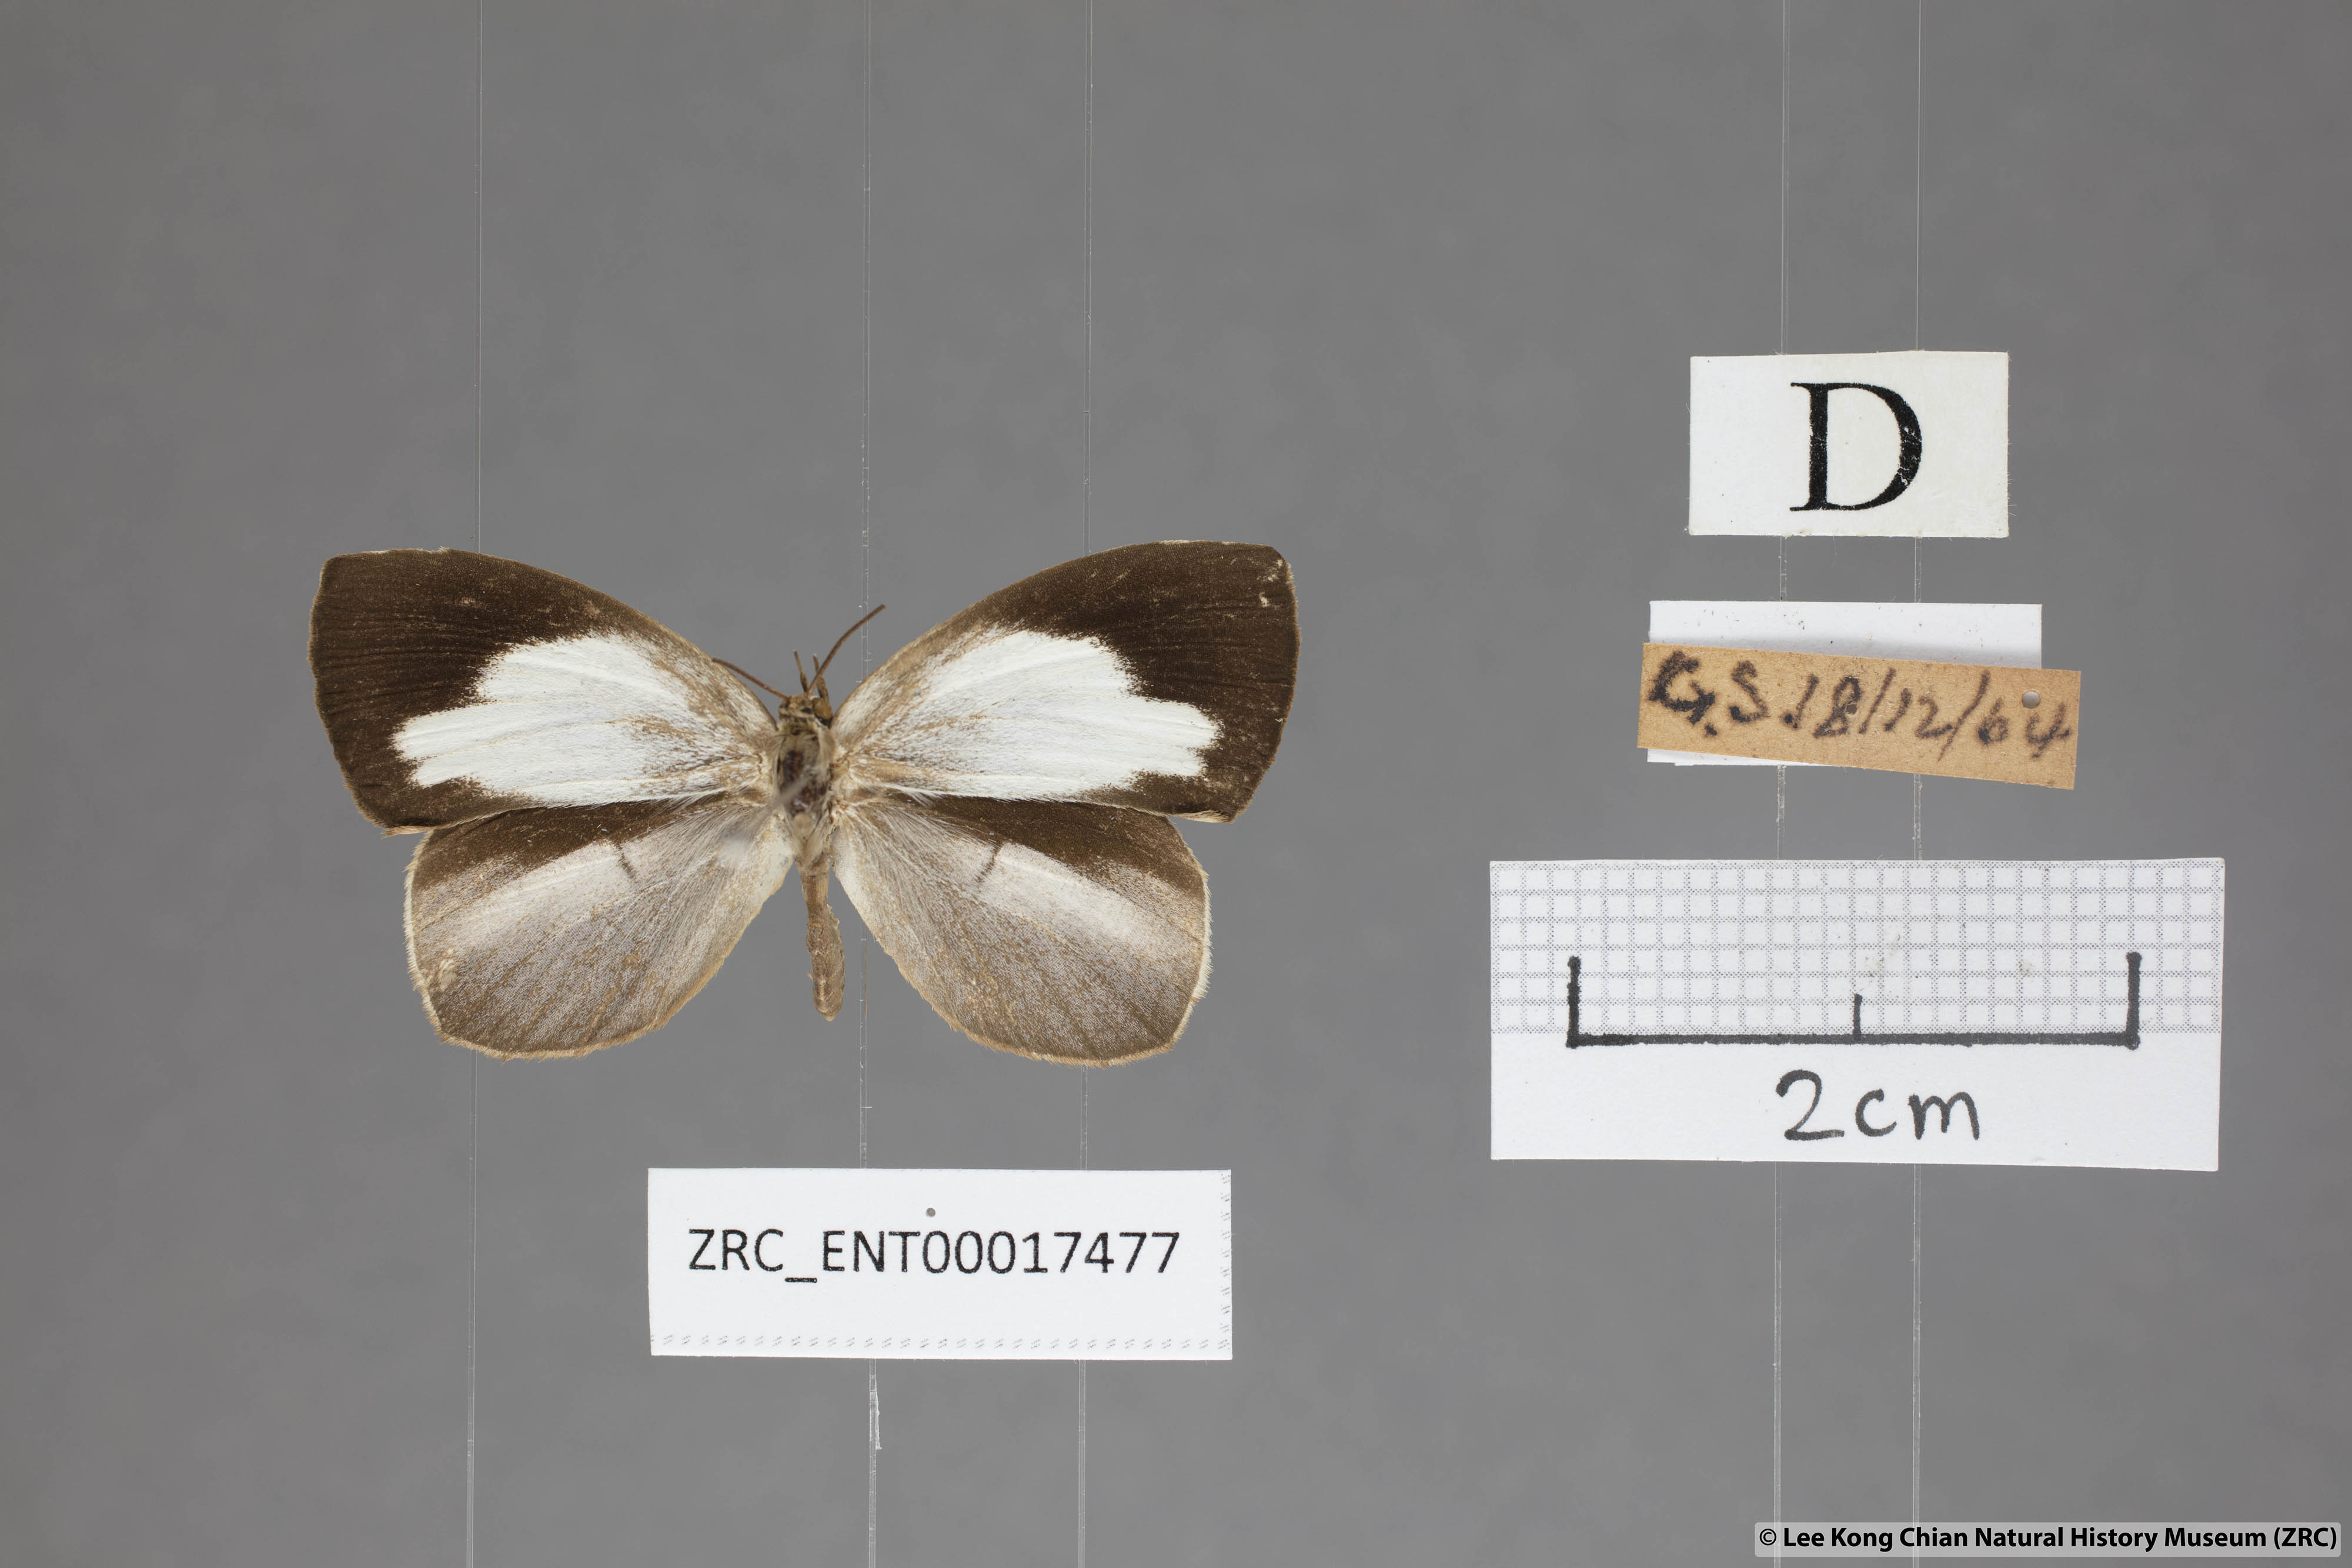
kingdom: Animalia
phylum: Arthropoda
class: Insecta
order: Lepidoptera
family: Lycaenidae
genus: Miletus
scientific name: Miletus symethus
